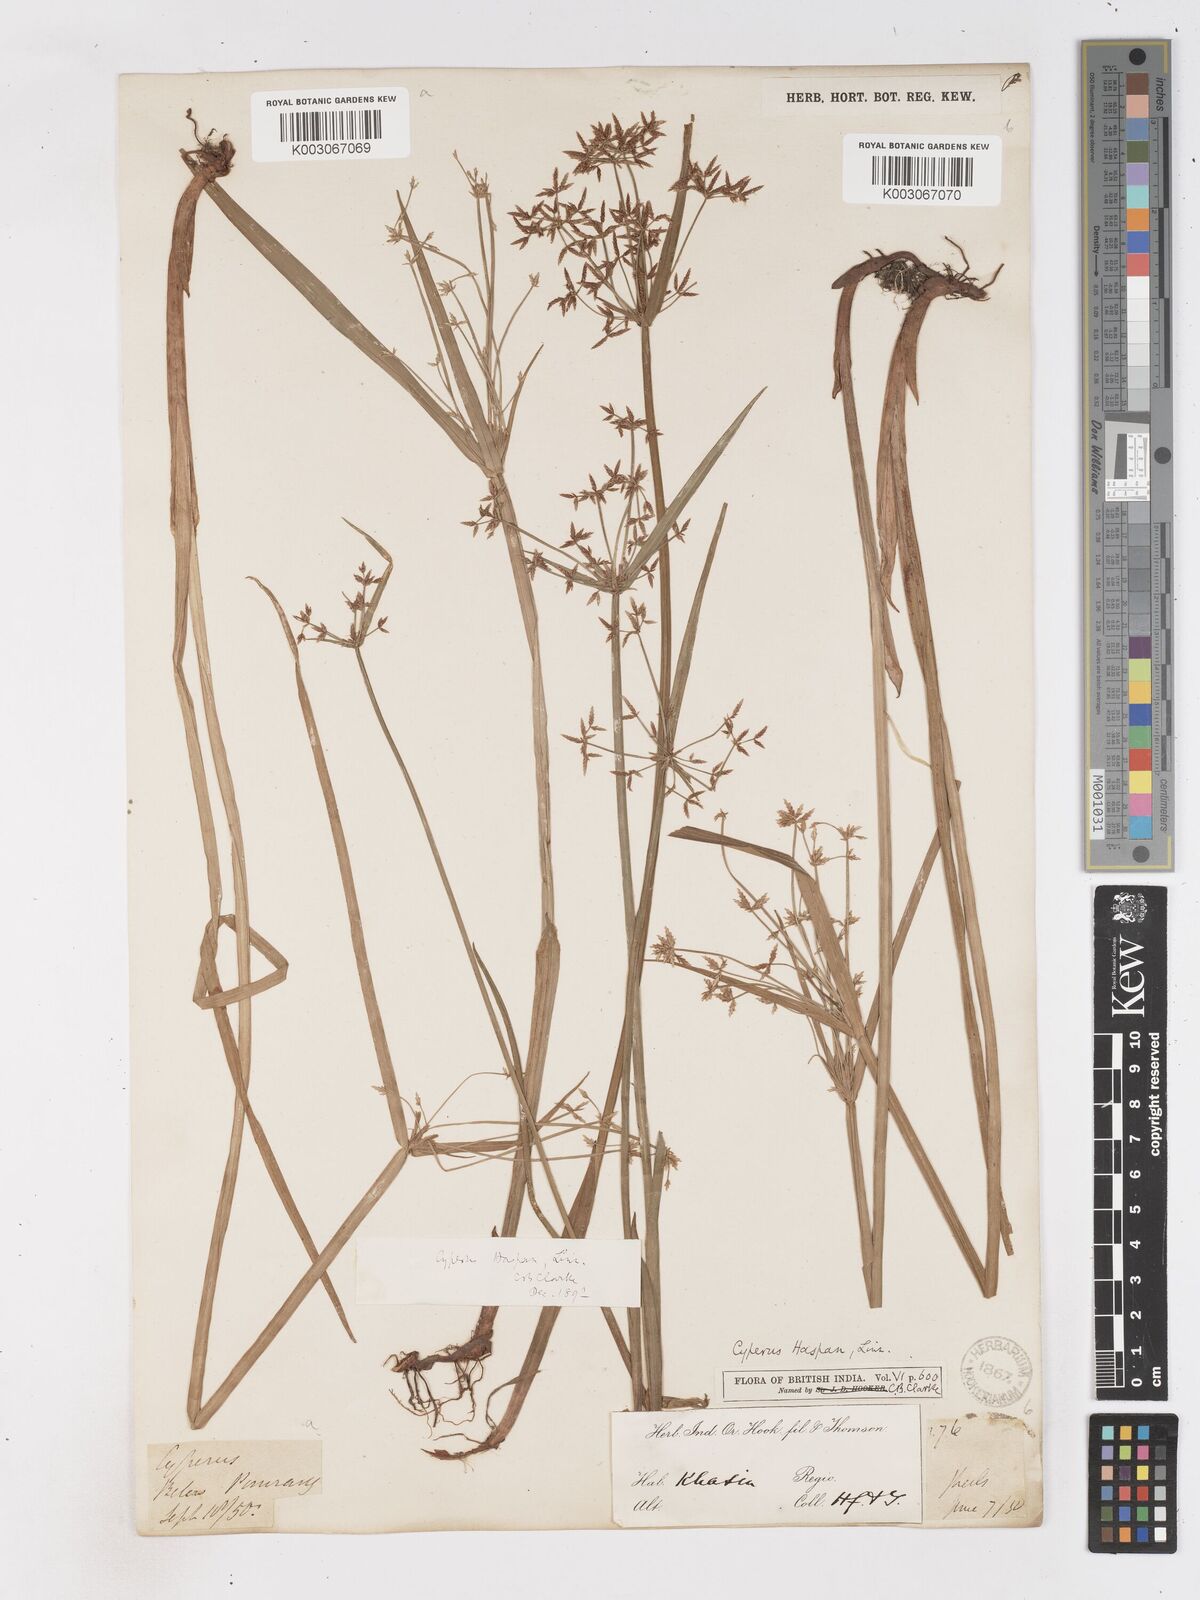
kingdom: Plantae
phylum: Tracheophyta
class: Liliopsida
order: Poales
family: Cyperaceae
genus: Cyperus
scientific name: Cyperus haspan
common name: Haspan flatsedge
